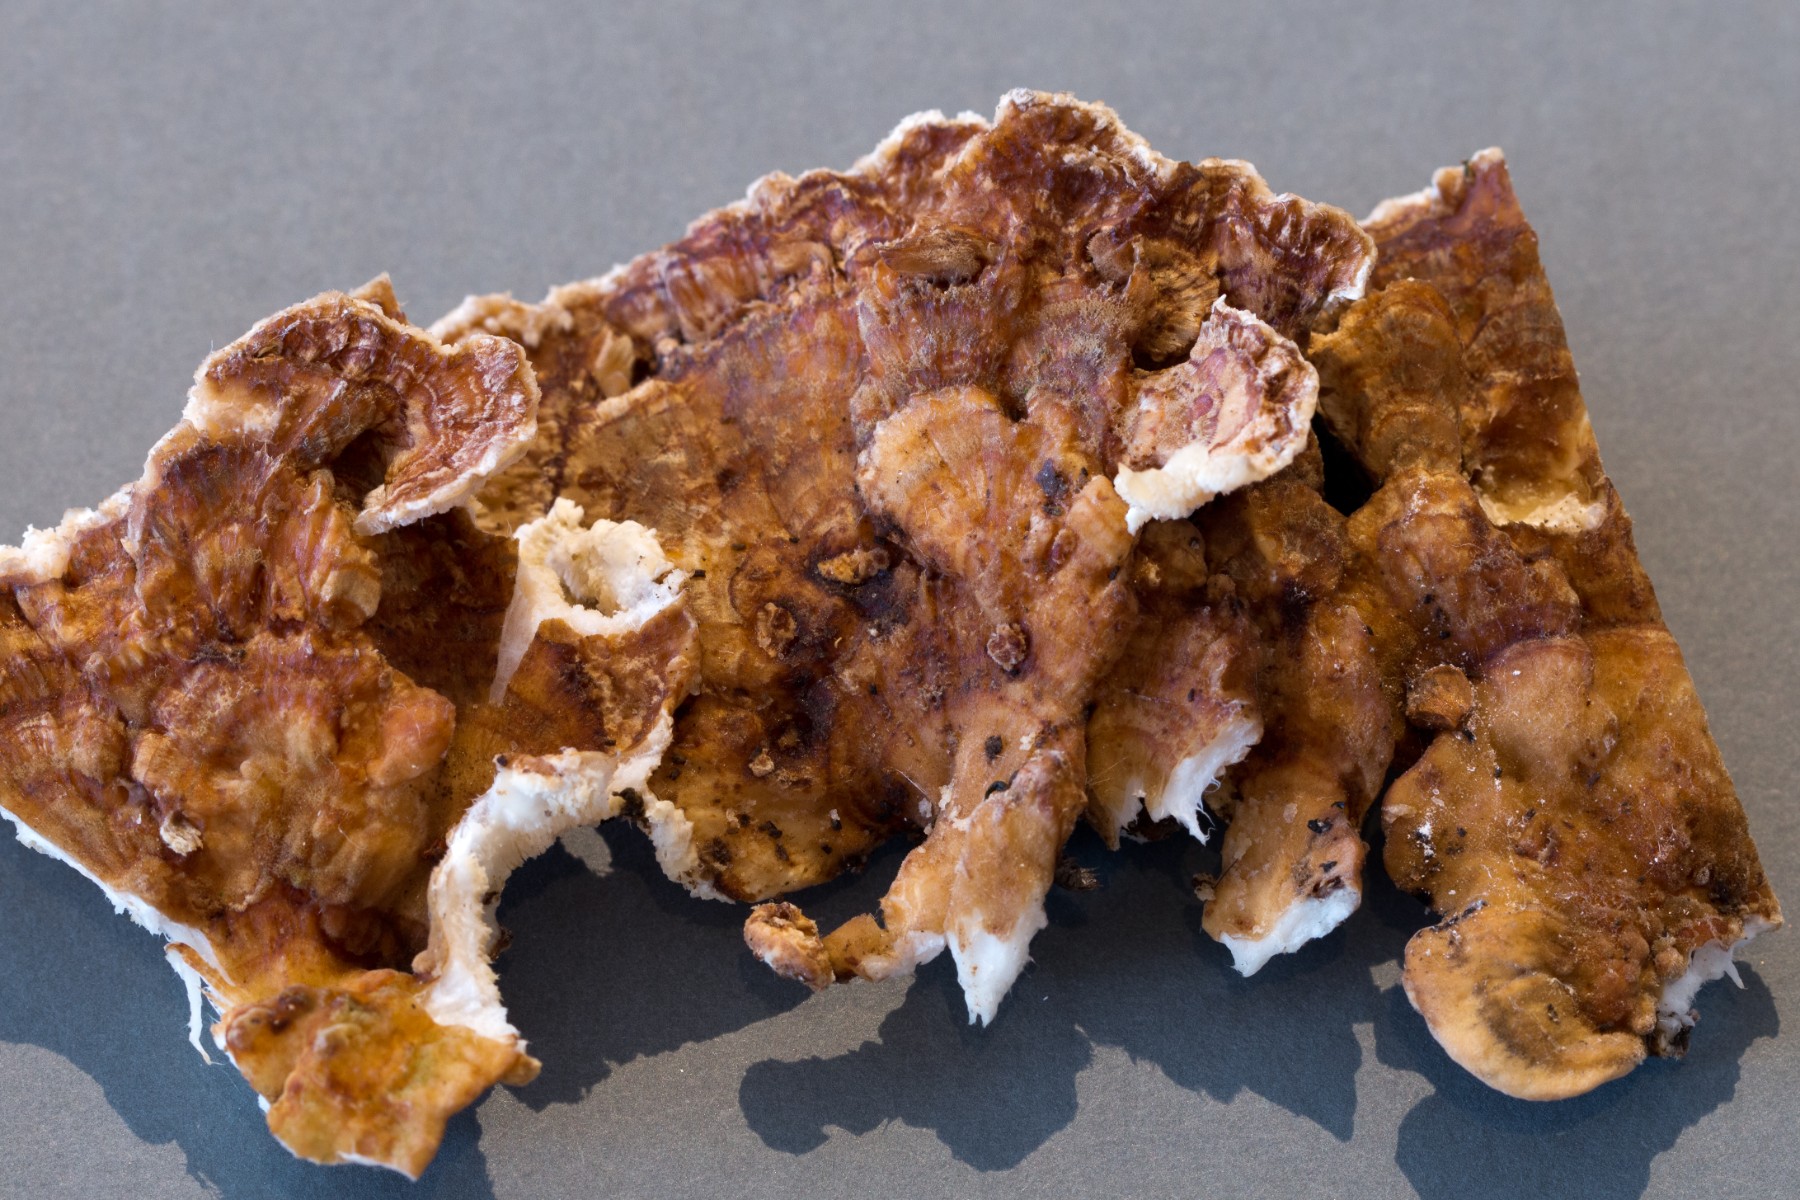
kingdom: Fungi
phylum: Basidiomycota
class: Agaricomycetes
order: Polyporales
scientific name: Polyporales
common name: poresvampordenen
